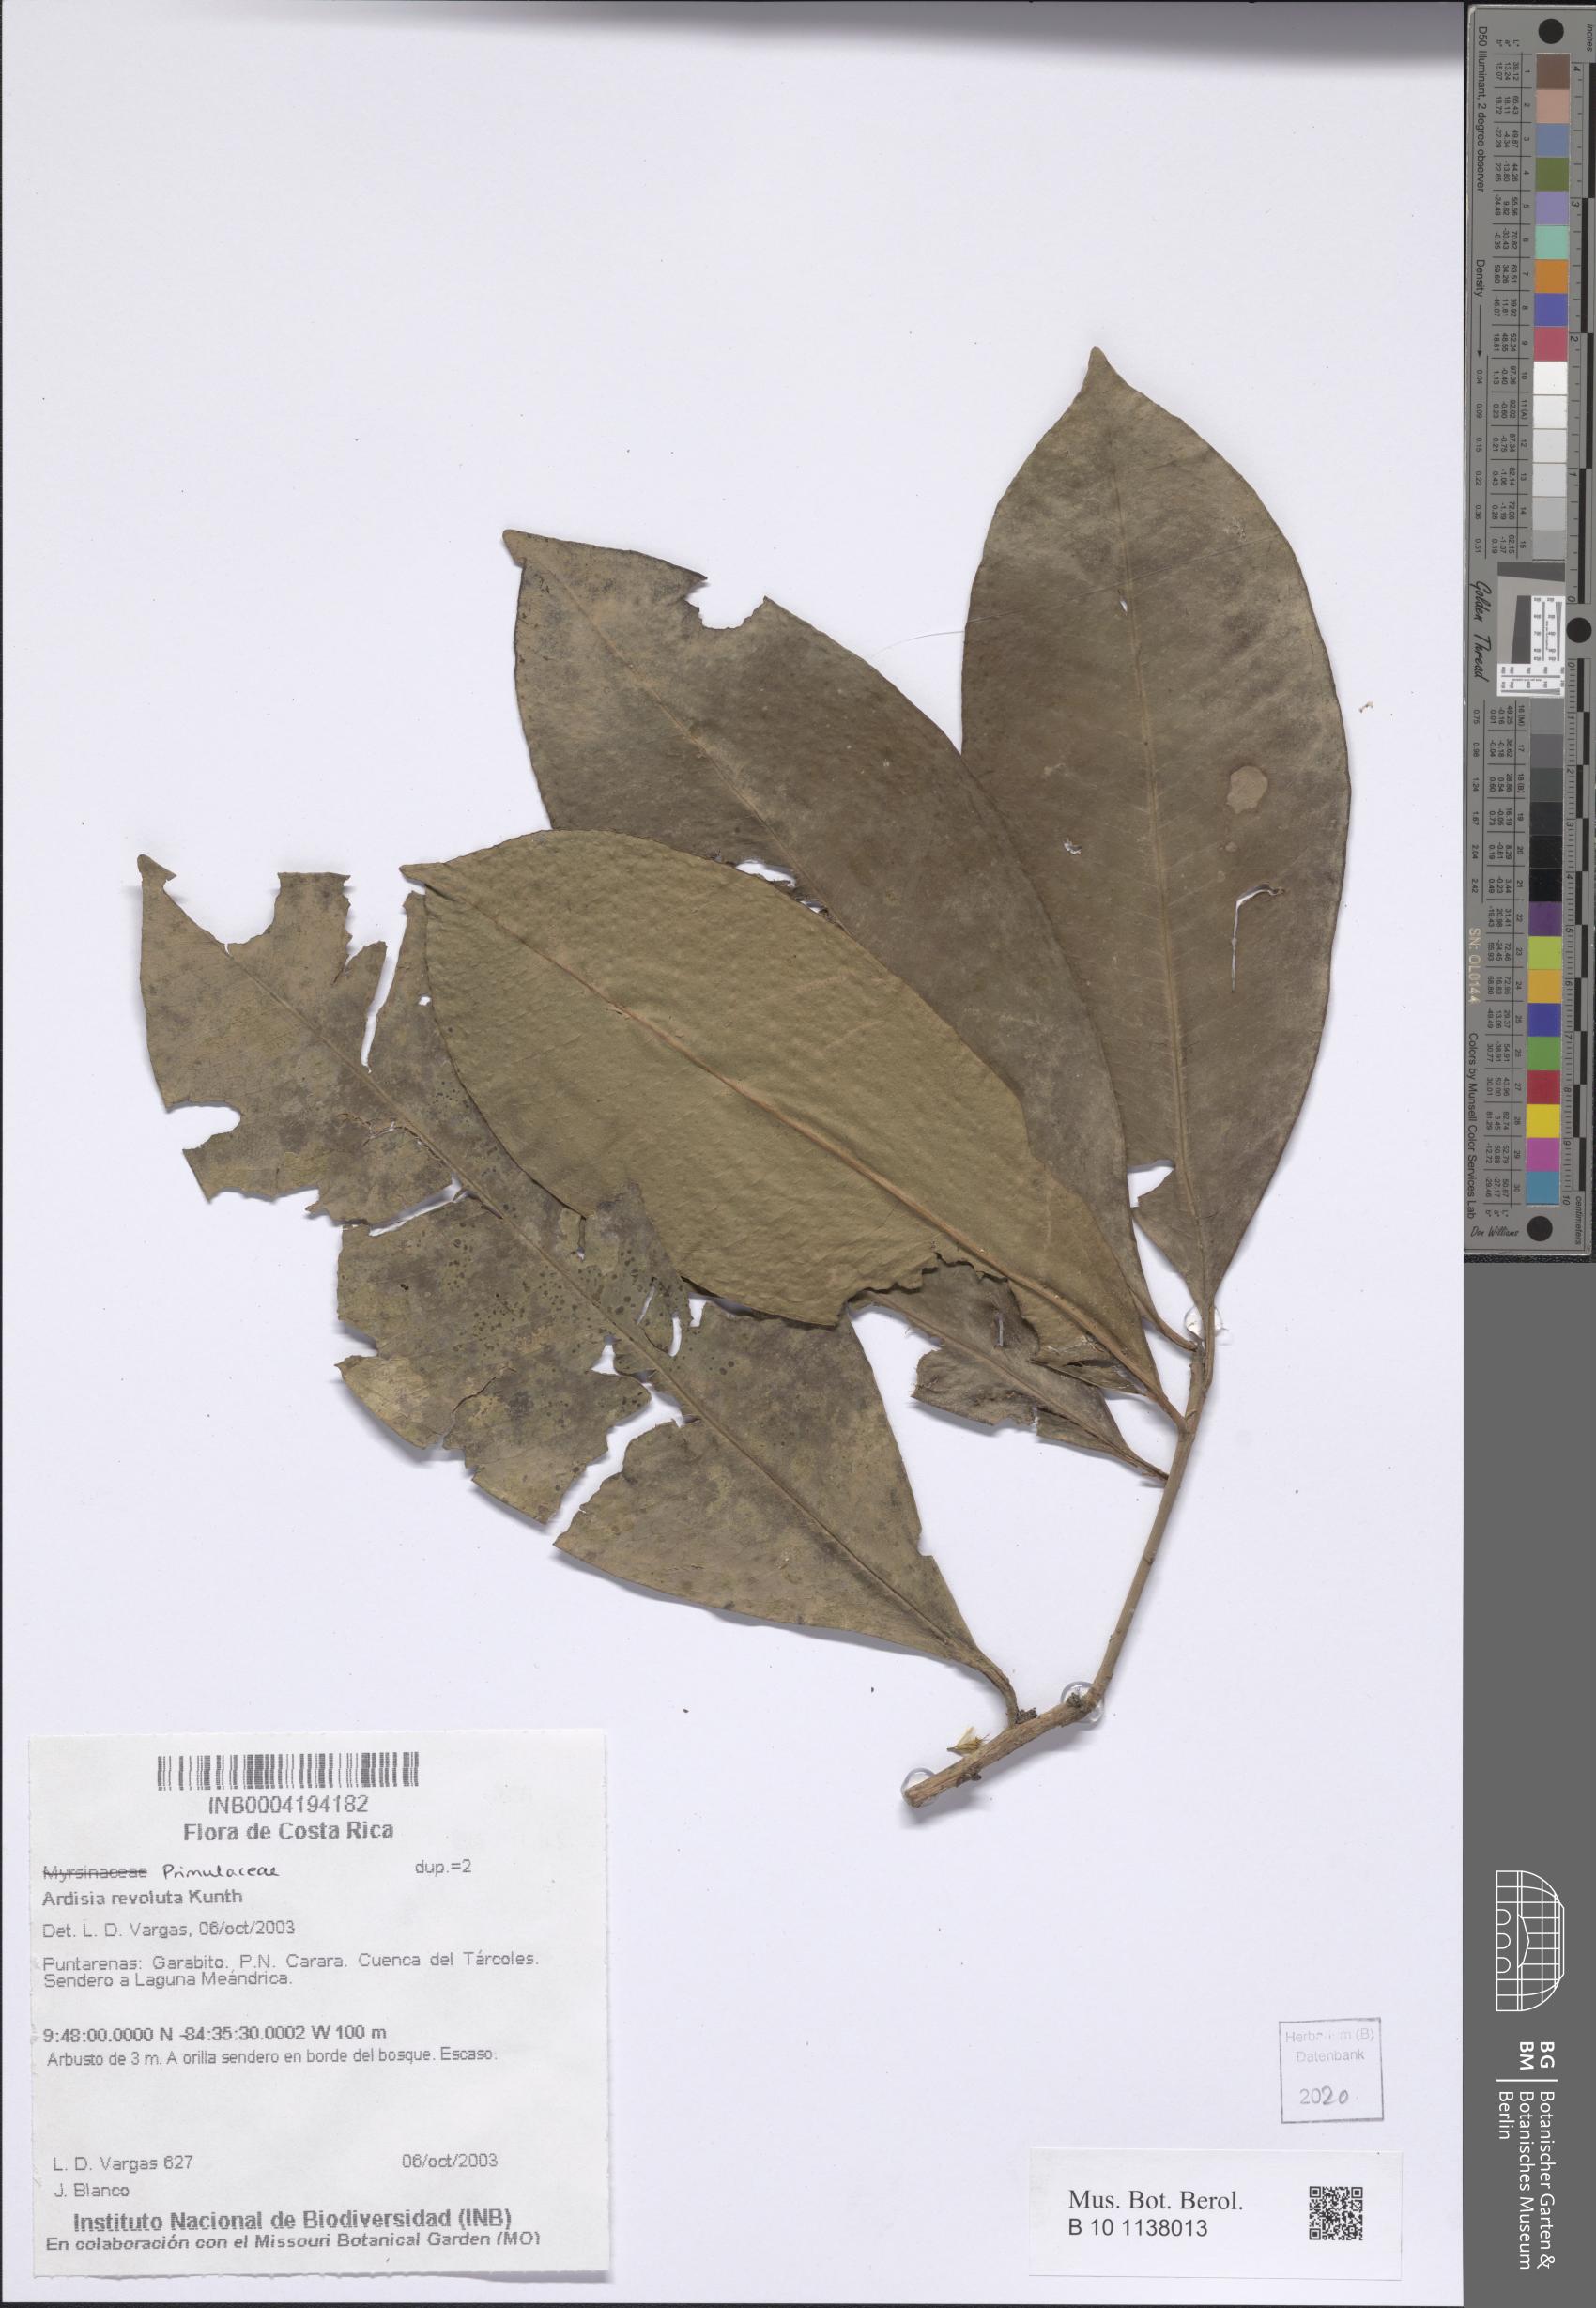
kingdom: Plantae
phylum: Tracheophyta
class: Magnoliopsida
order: Ericales
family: Primulaceae
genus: Ardisia
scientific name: Ardisia revoluta
